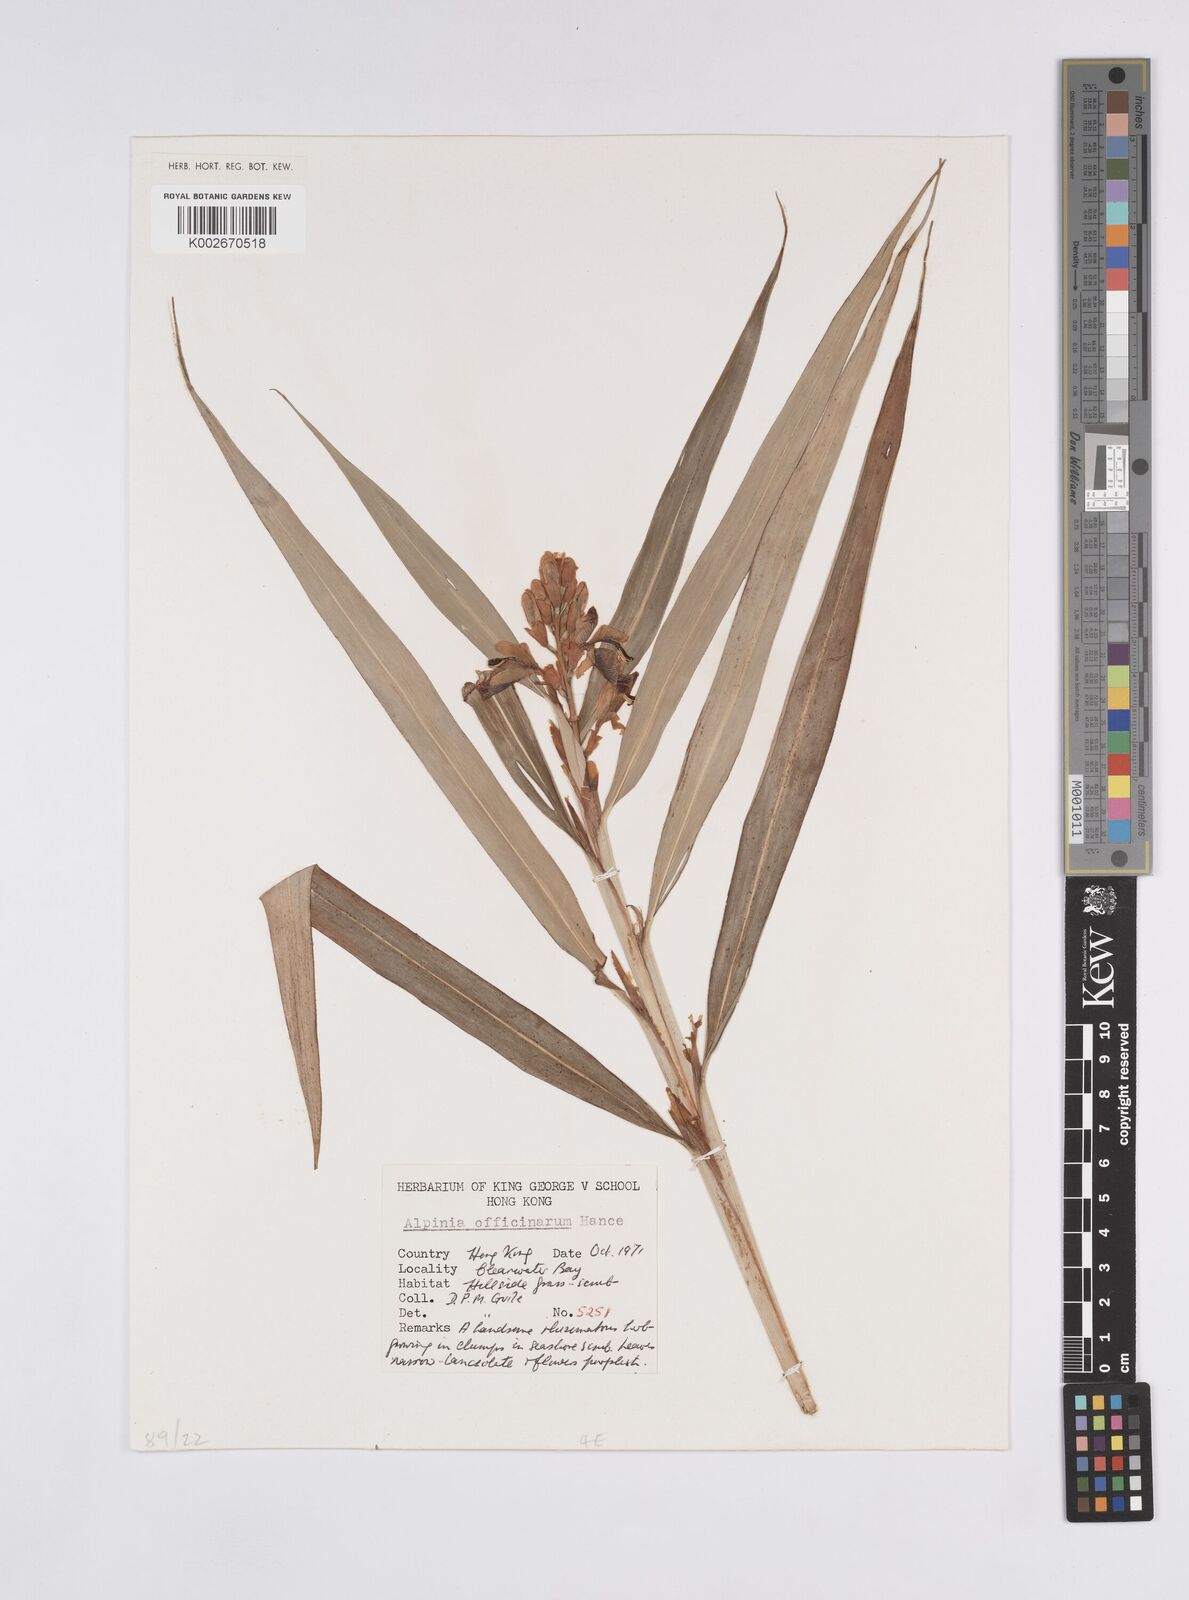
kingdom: Plantae
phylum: Tracheophyta
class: Liliopsida
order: Zingiberales
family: Zingiberaceae
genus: Alpinia
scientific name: Alpinia officinarum
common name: Chinese-ginger
